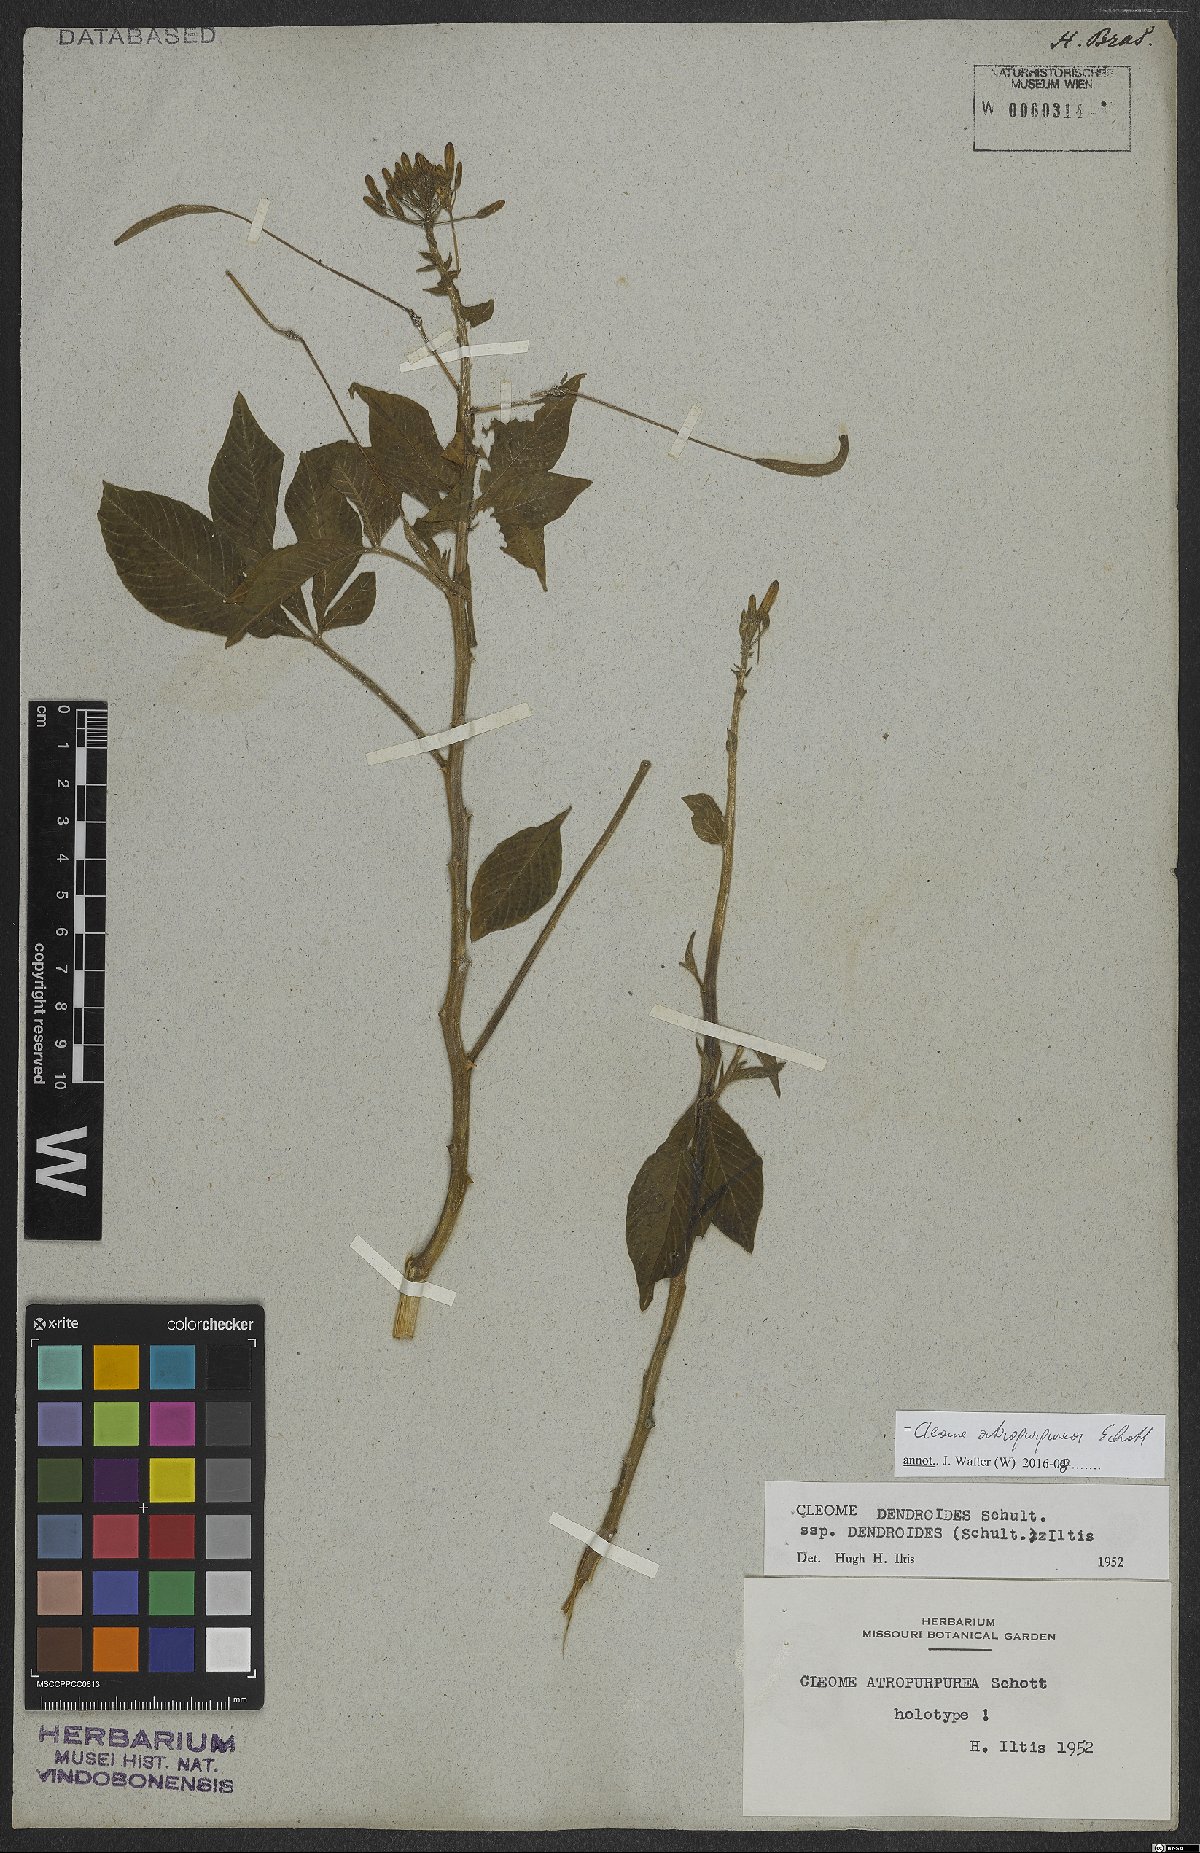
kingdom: Plantae
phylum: Tracheophyta
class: Magnoliopsida
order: Brassicales
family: Cleomaceae
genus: Tarenaya
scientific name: Tarenaya atropurpurea
